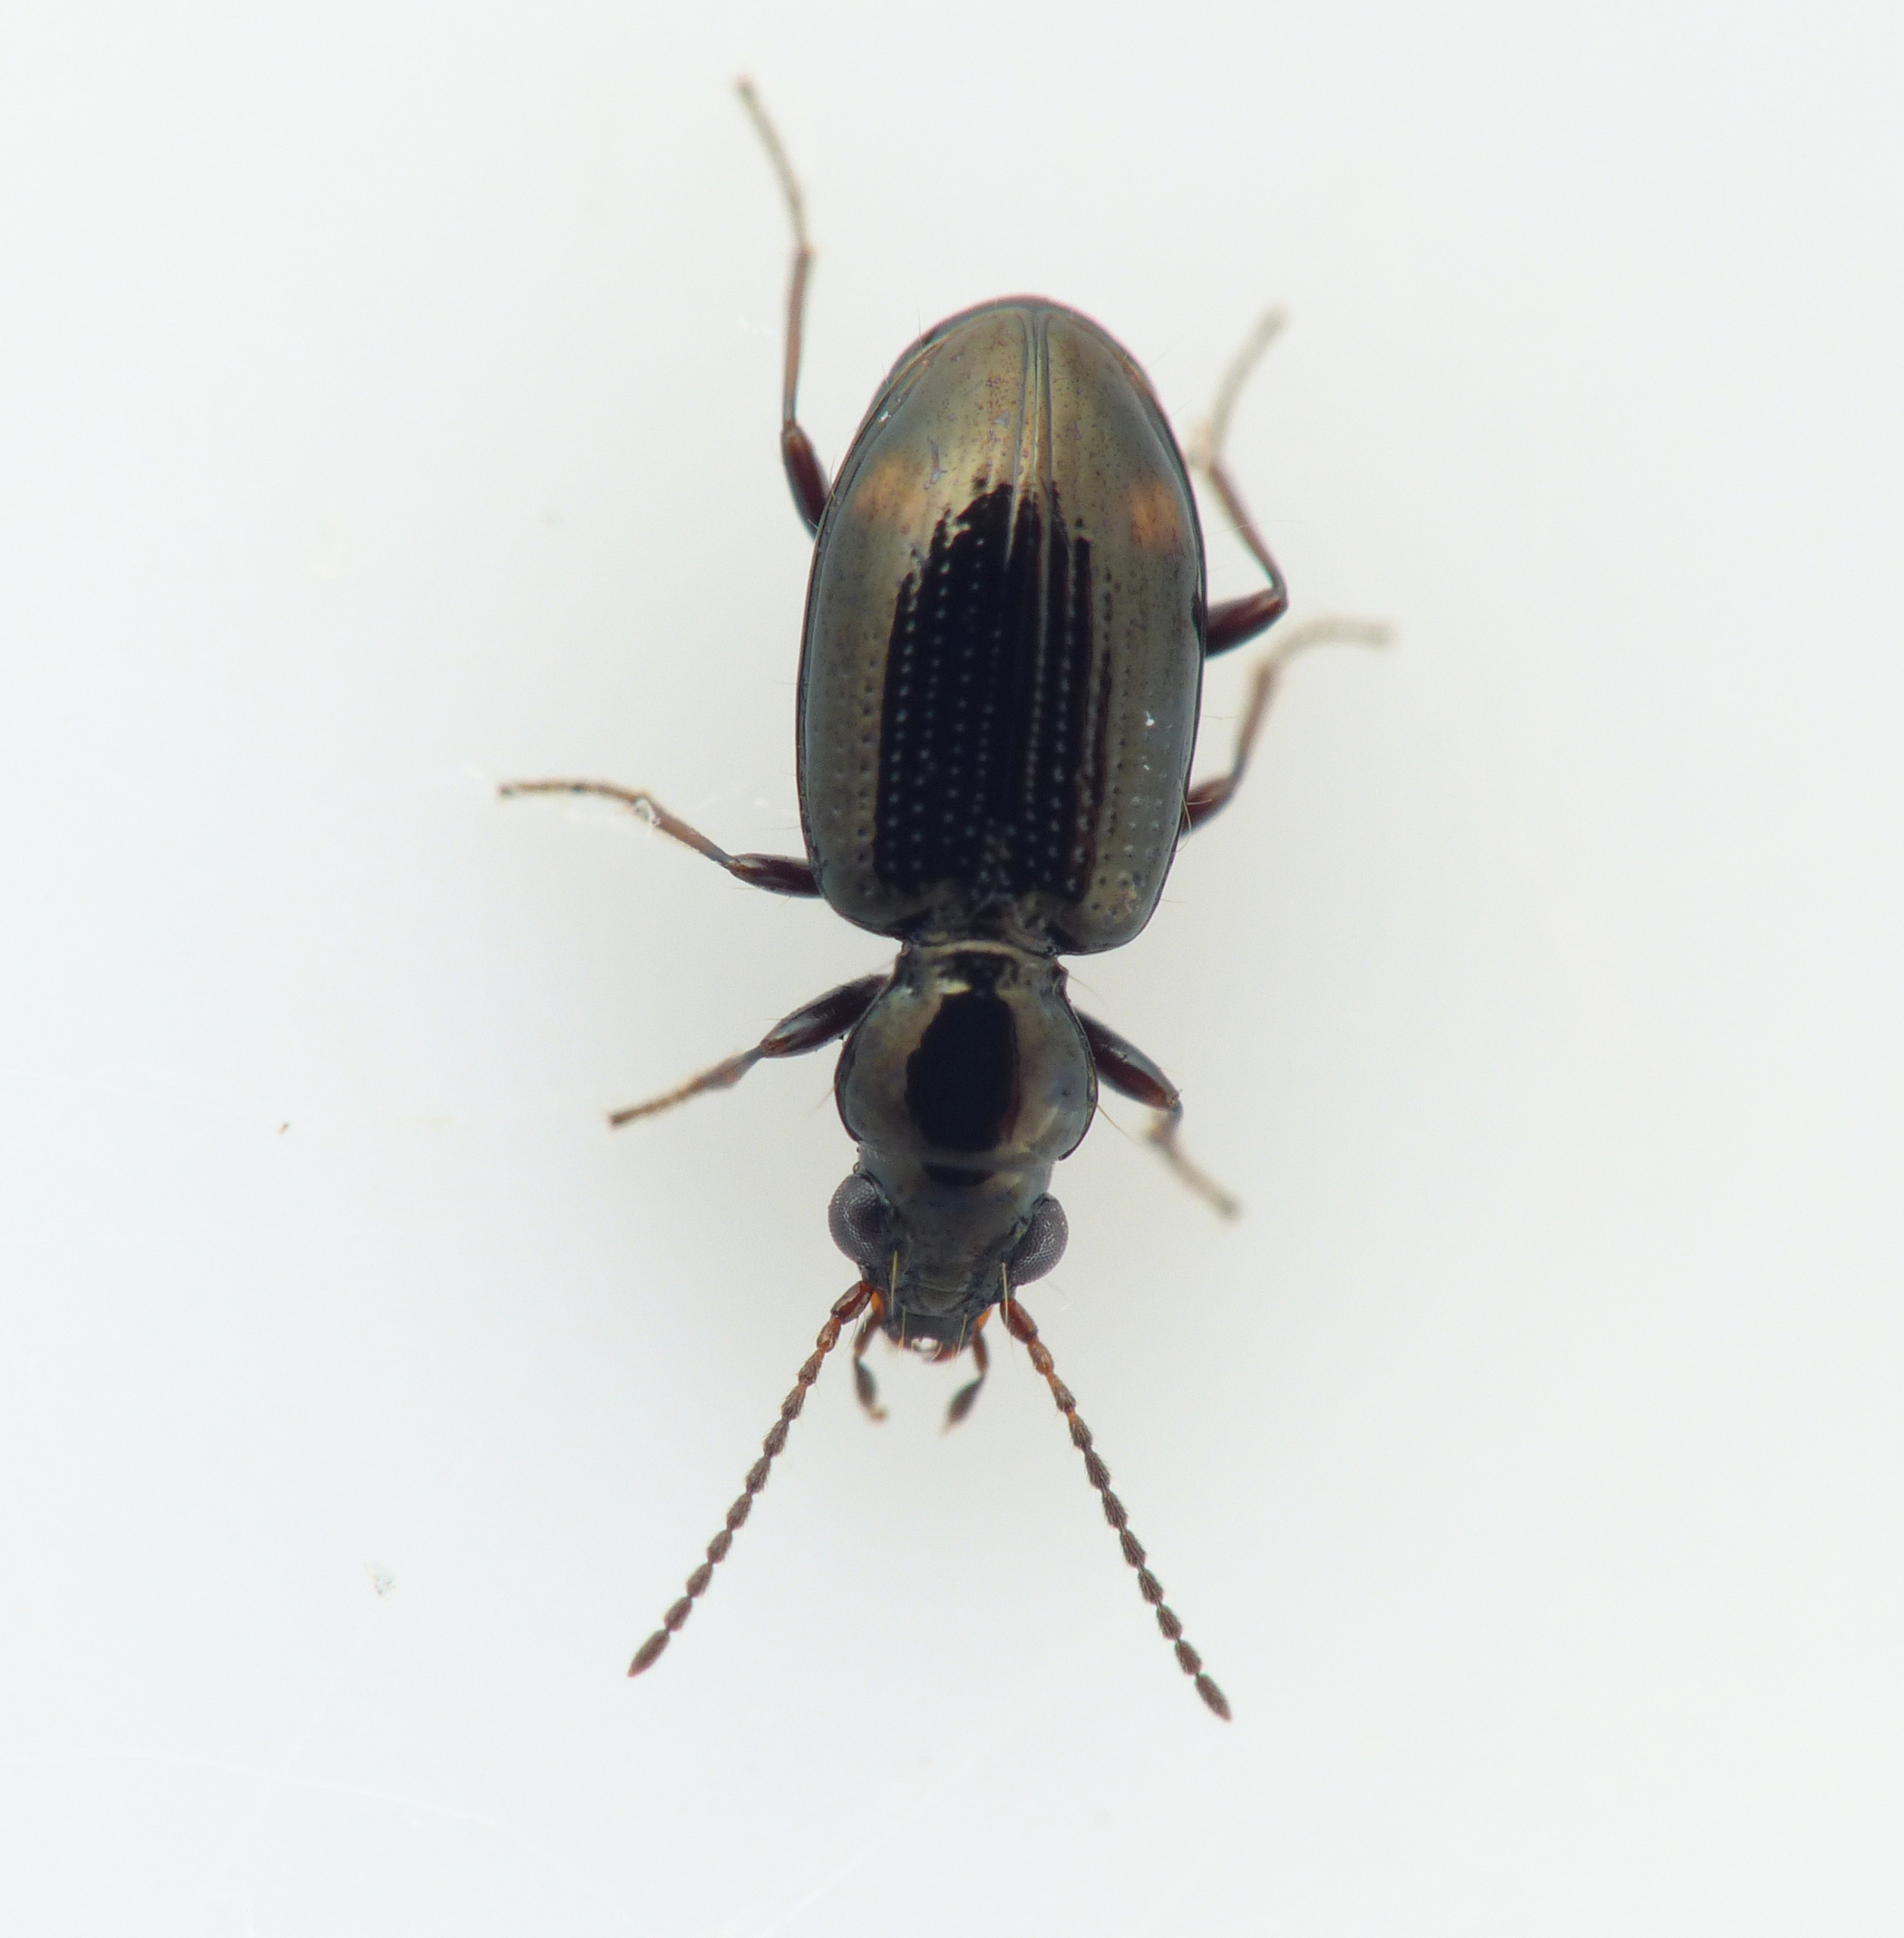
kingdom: Animalia
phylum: Arthropoda
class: Insecta
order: Coleoptera
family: Carabidae
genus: Bembidion
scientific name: Bembidion tenellum
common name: Liden glansløber
